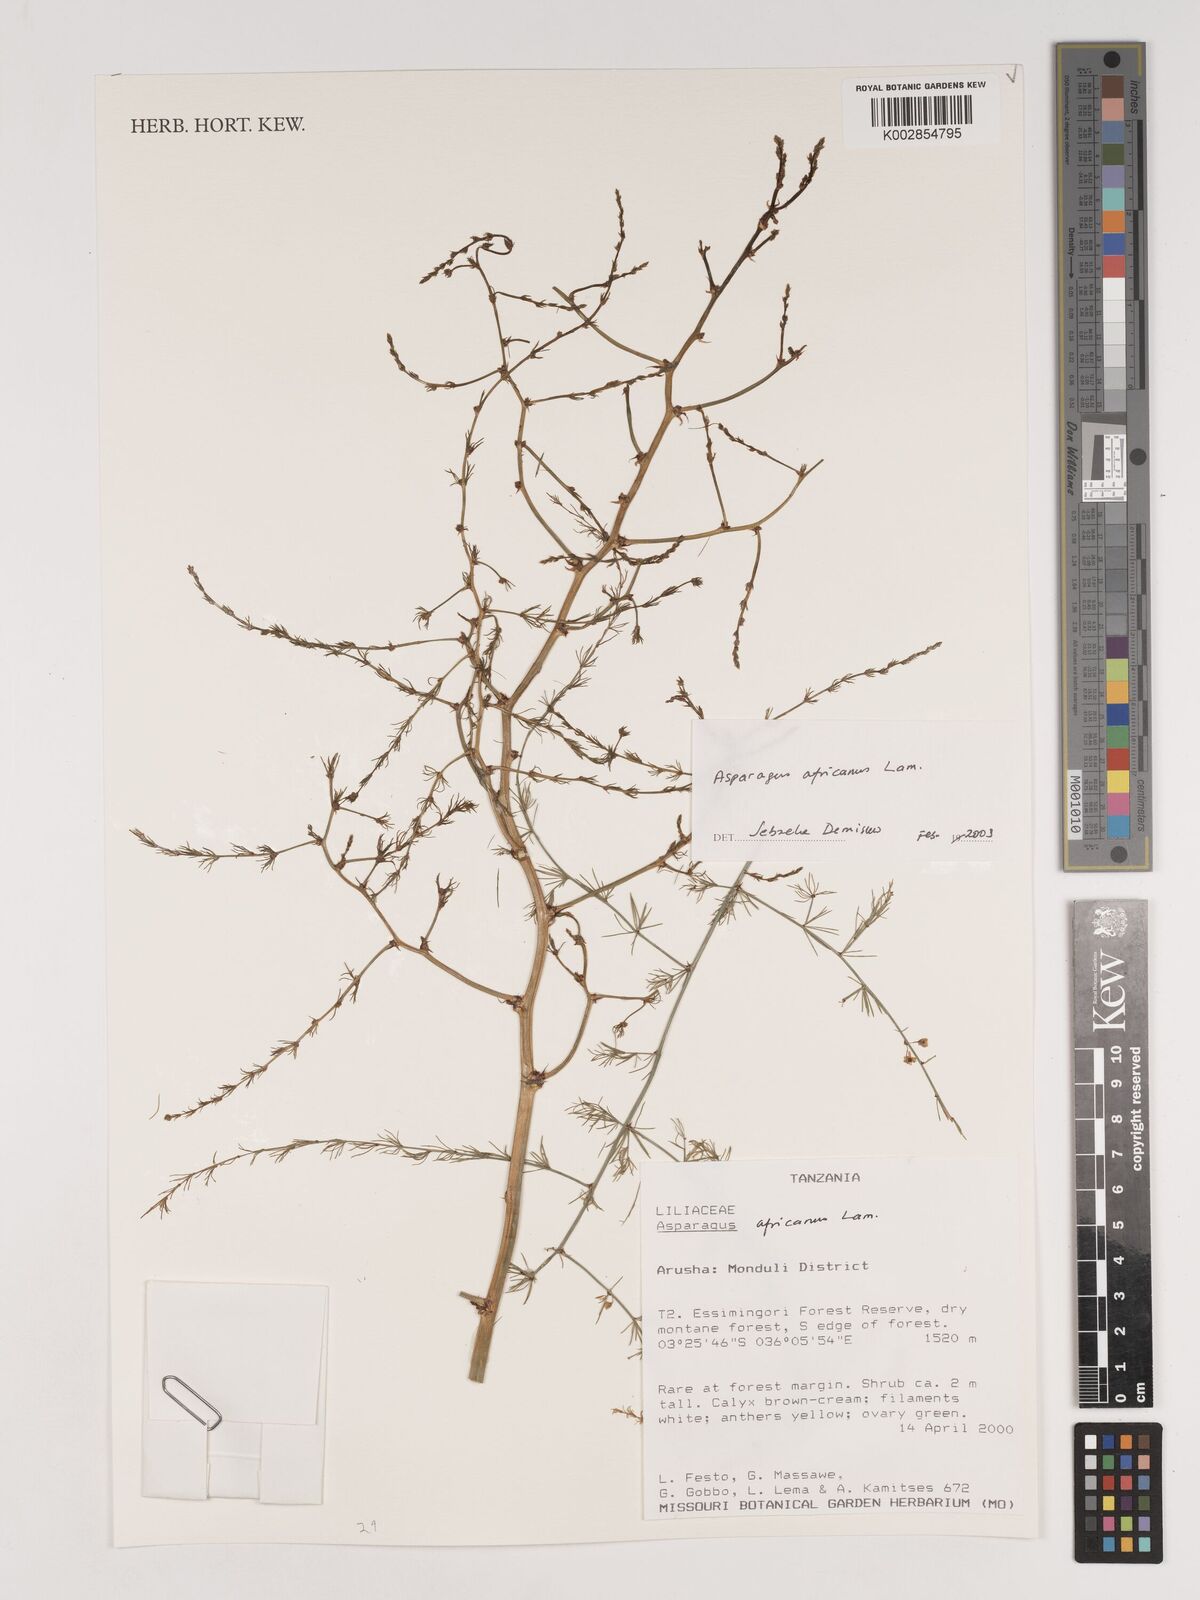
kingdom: Plantae
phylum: Tracheophyta
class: Liliopsida
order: Asparagales
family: Asparagaceae
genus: Asparagus
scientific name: Asparagus africanus
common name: Asparagus-fern
